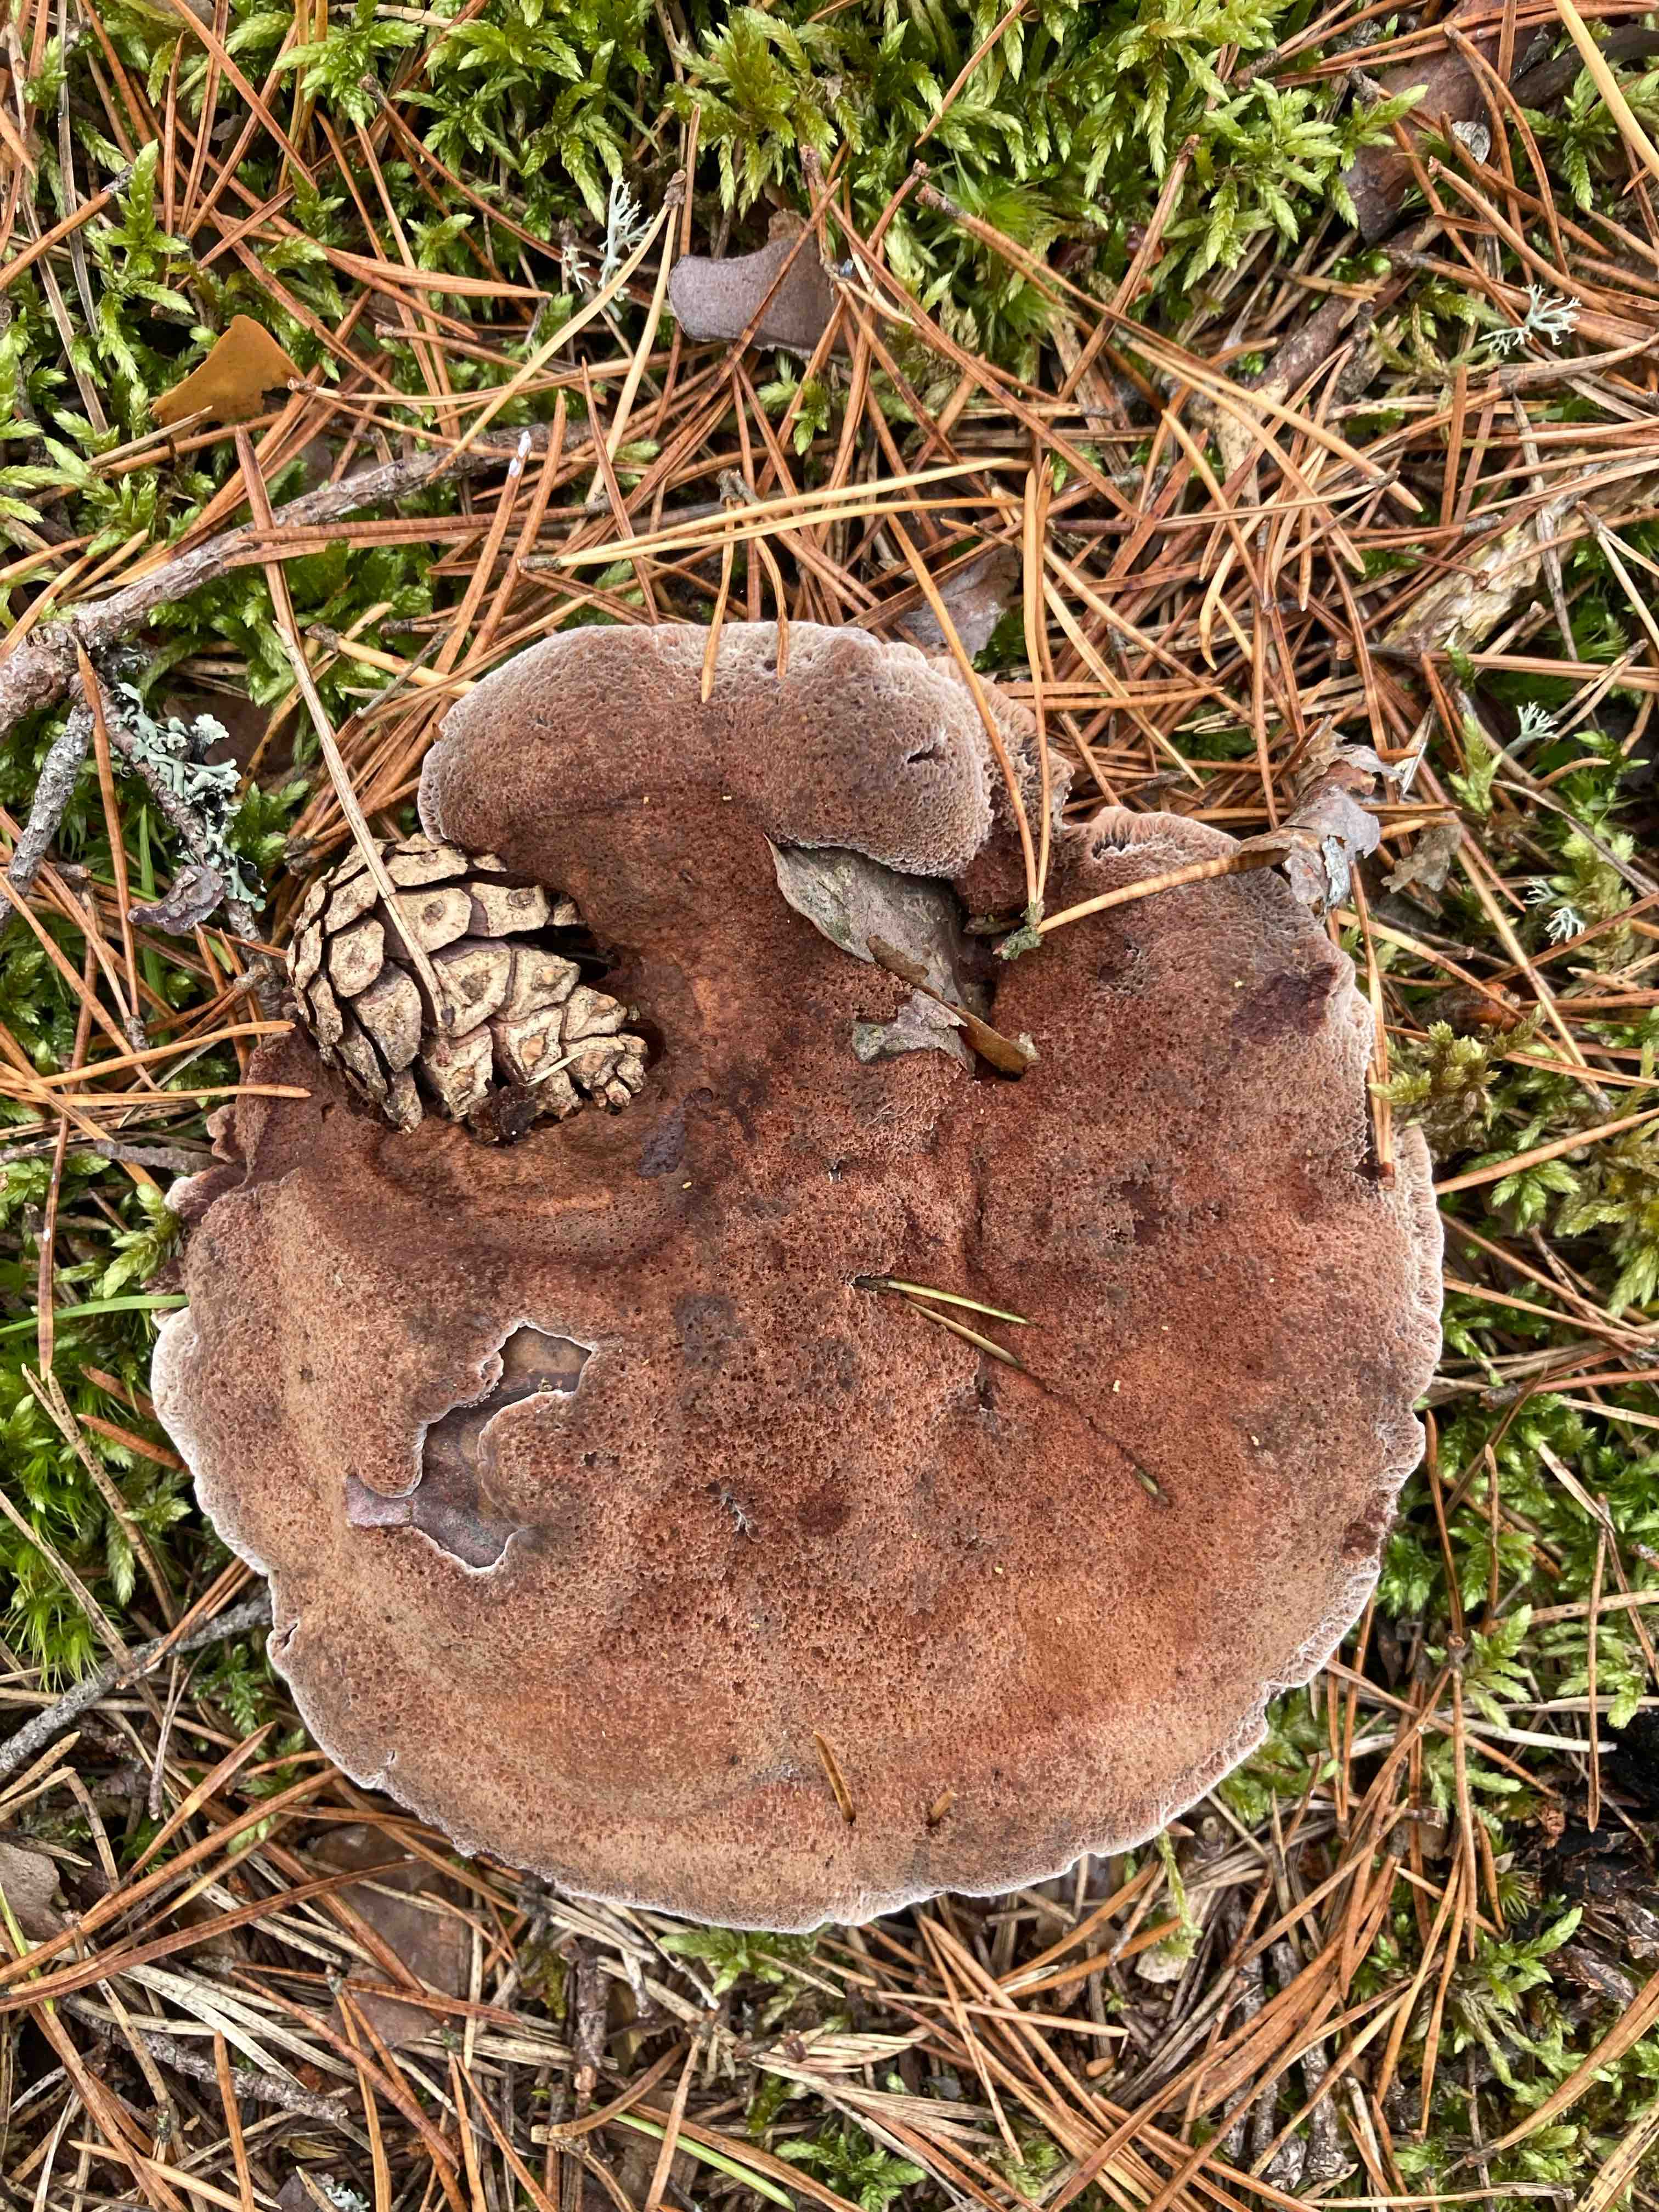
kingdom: Fungi
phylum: Basidiomycota
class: Agaricomycetes
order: Thelephorales
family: Bankeraceae
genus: Hydnellum
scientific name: Hydnellum ferrugineum
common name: rust-korkpigsvamp
